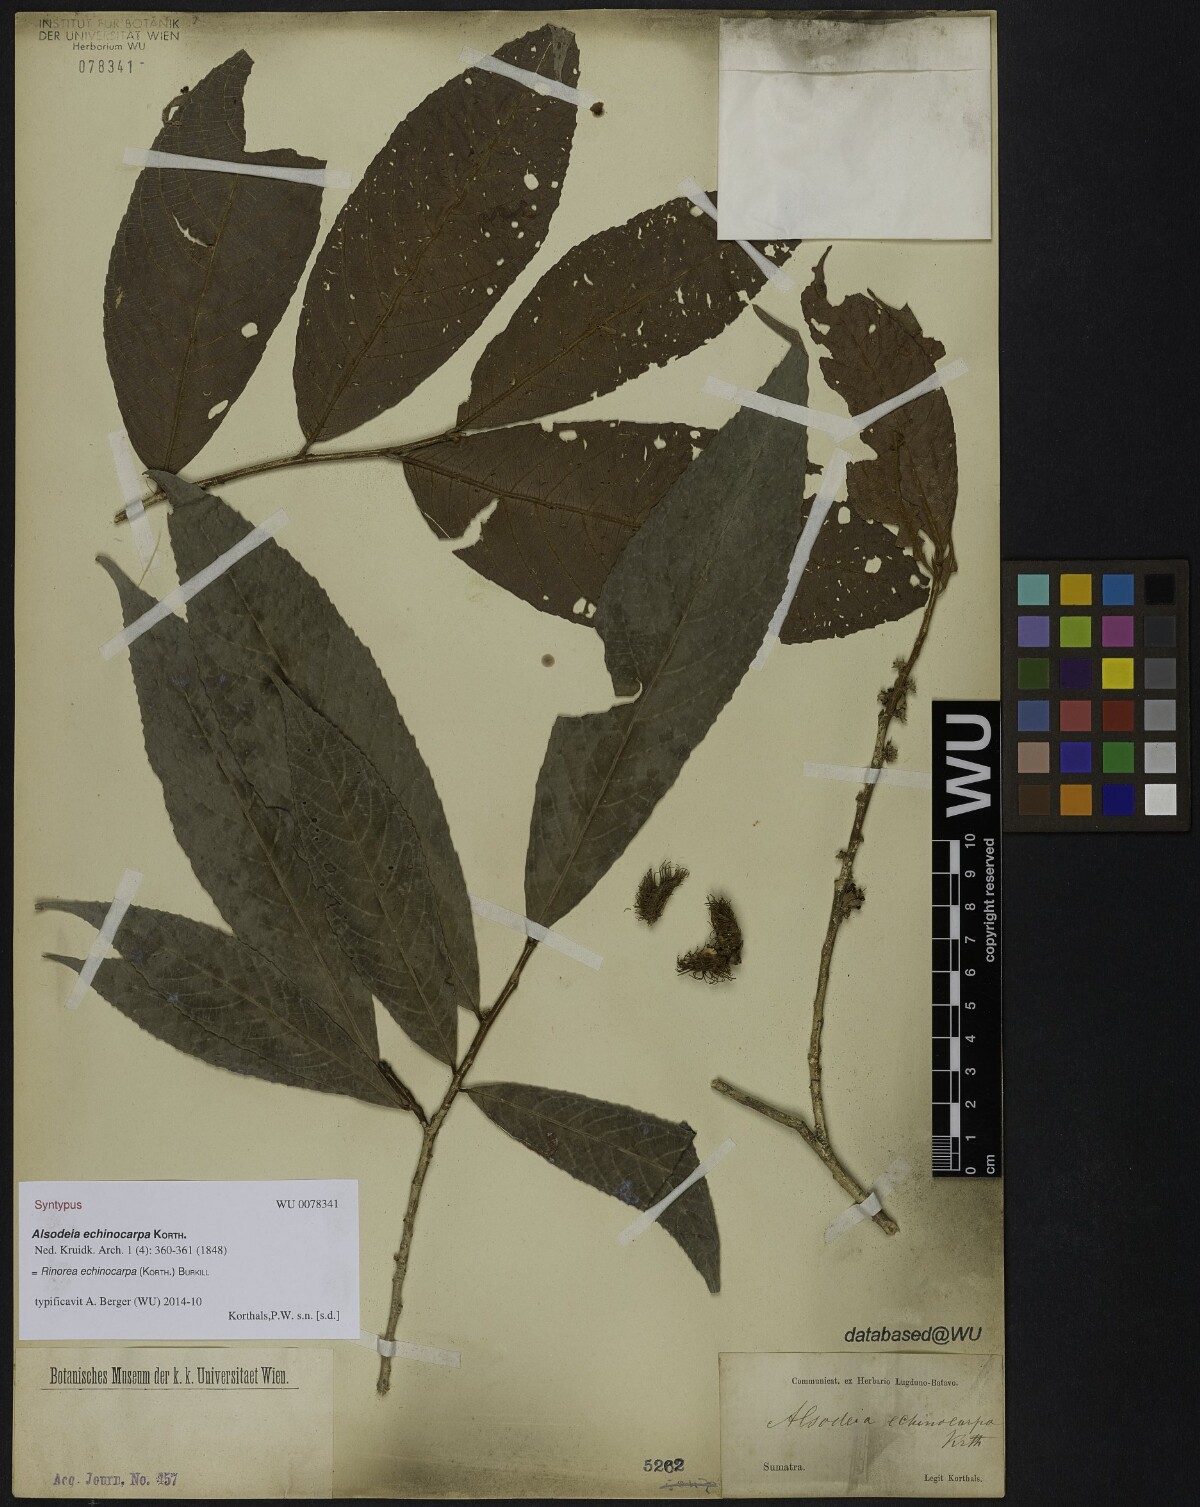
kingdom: Plantae
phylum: Tracheophyta
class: Magnoliopsida
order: Malpighiales
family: Violaceae
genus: Rinorea
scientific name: Rinorea anguifera
